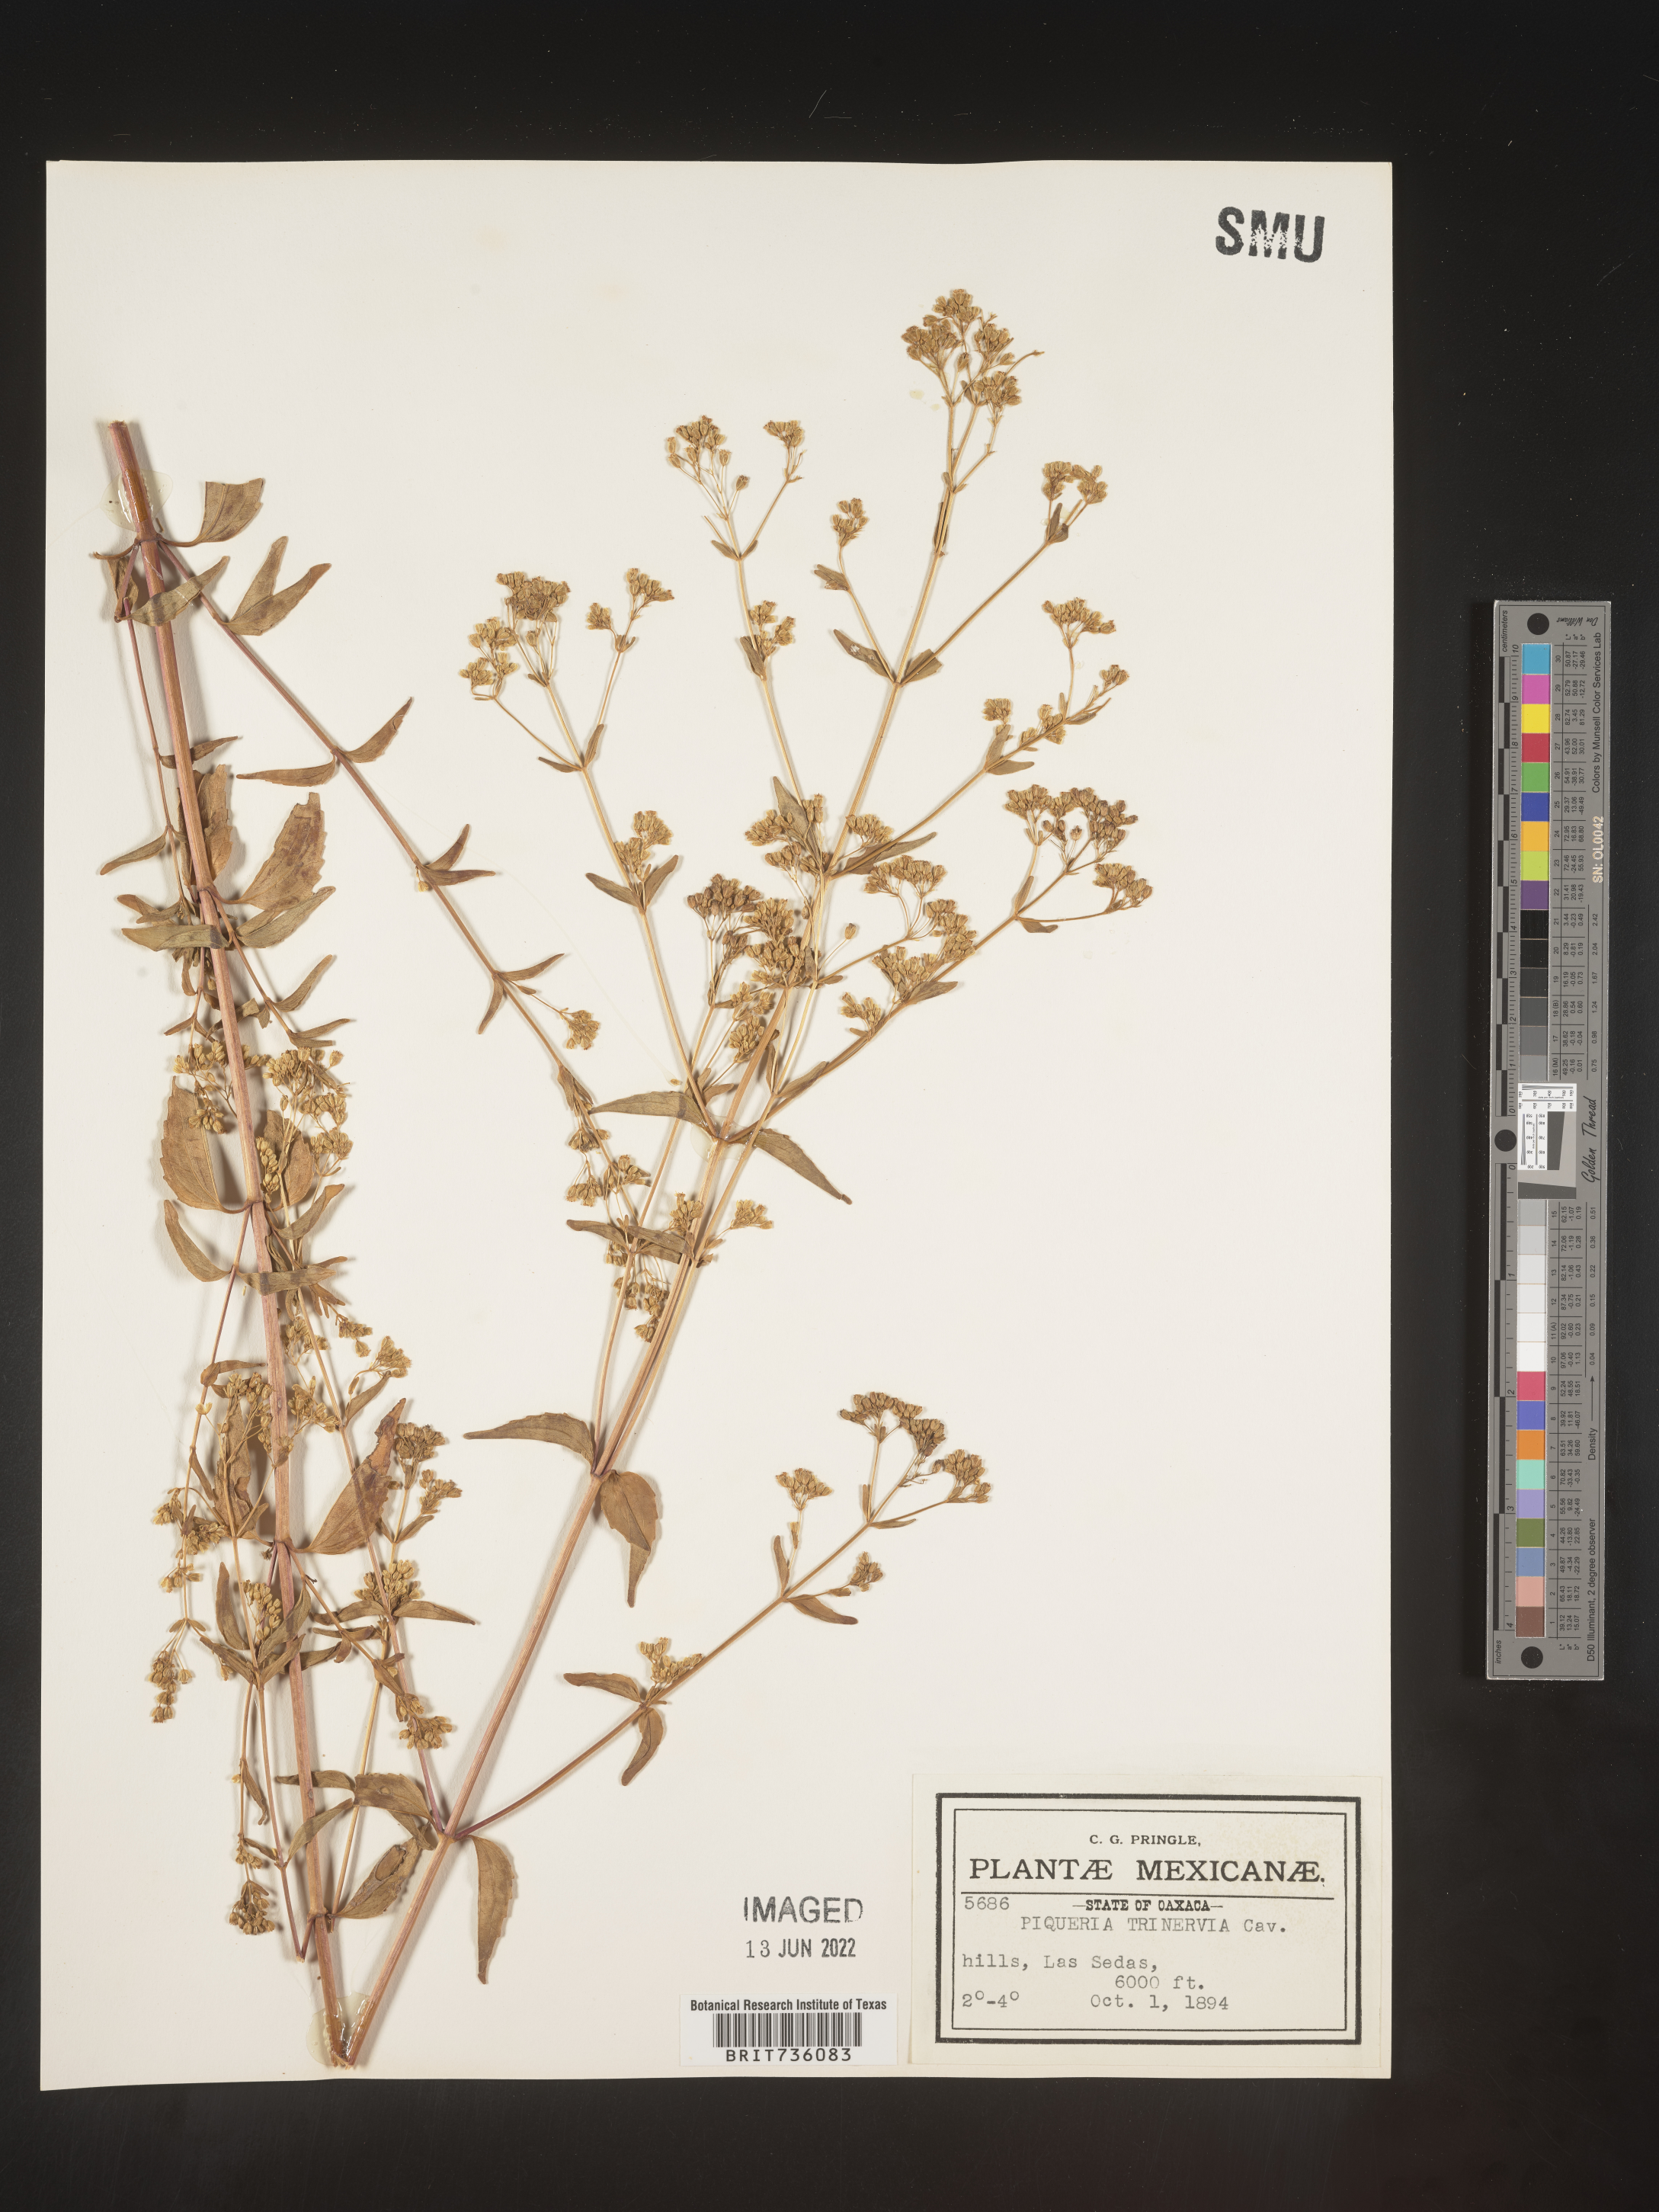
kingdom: Plantae
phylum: Tracheophyta
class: Magnoliopsida
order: Asterales
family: Asteraceae
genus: Piqueria
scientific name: Piqueria
